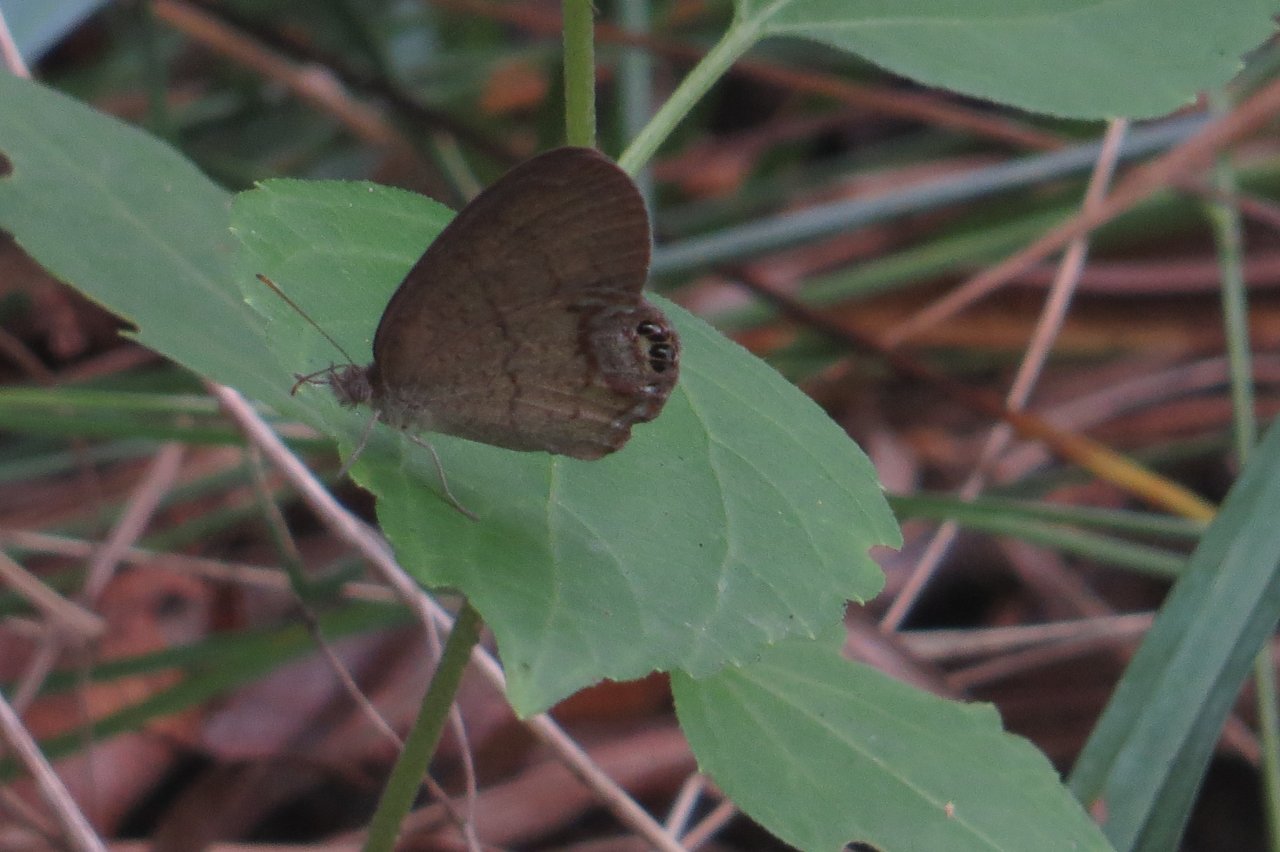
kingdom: Animalia
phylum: Arthropoda
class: Insecta
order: Lepidoptera
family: Nymphalidae
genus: Euptychia
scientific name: Euptychia cornelius
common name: Gemmed Satyr
